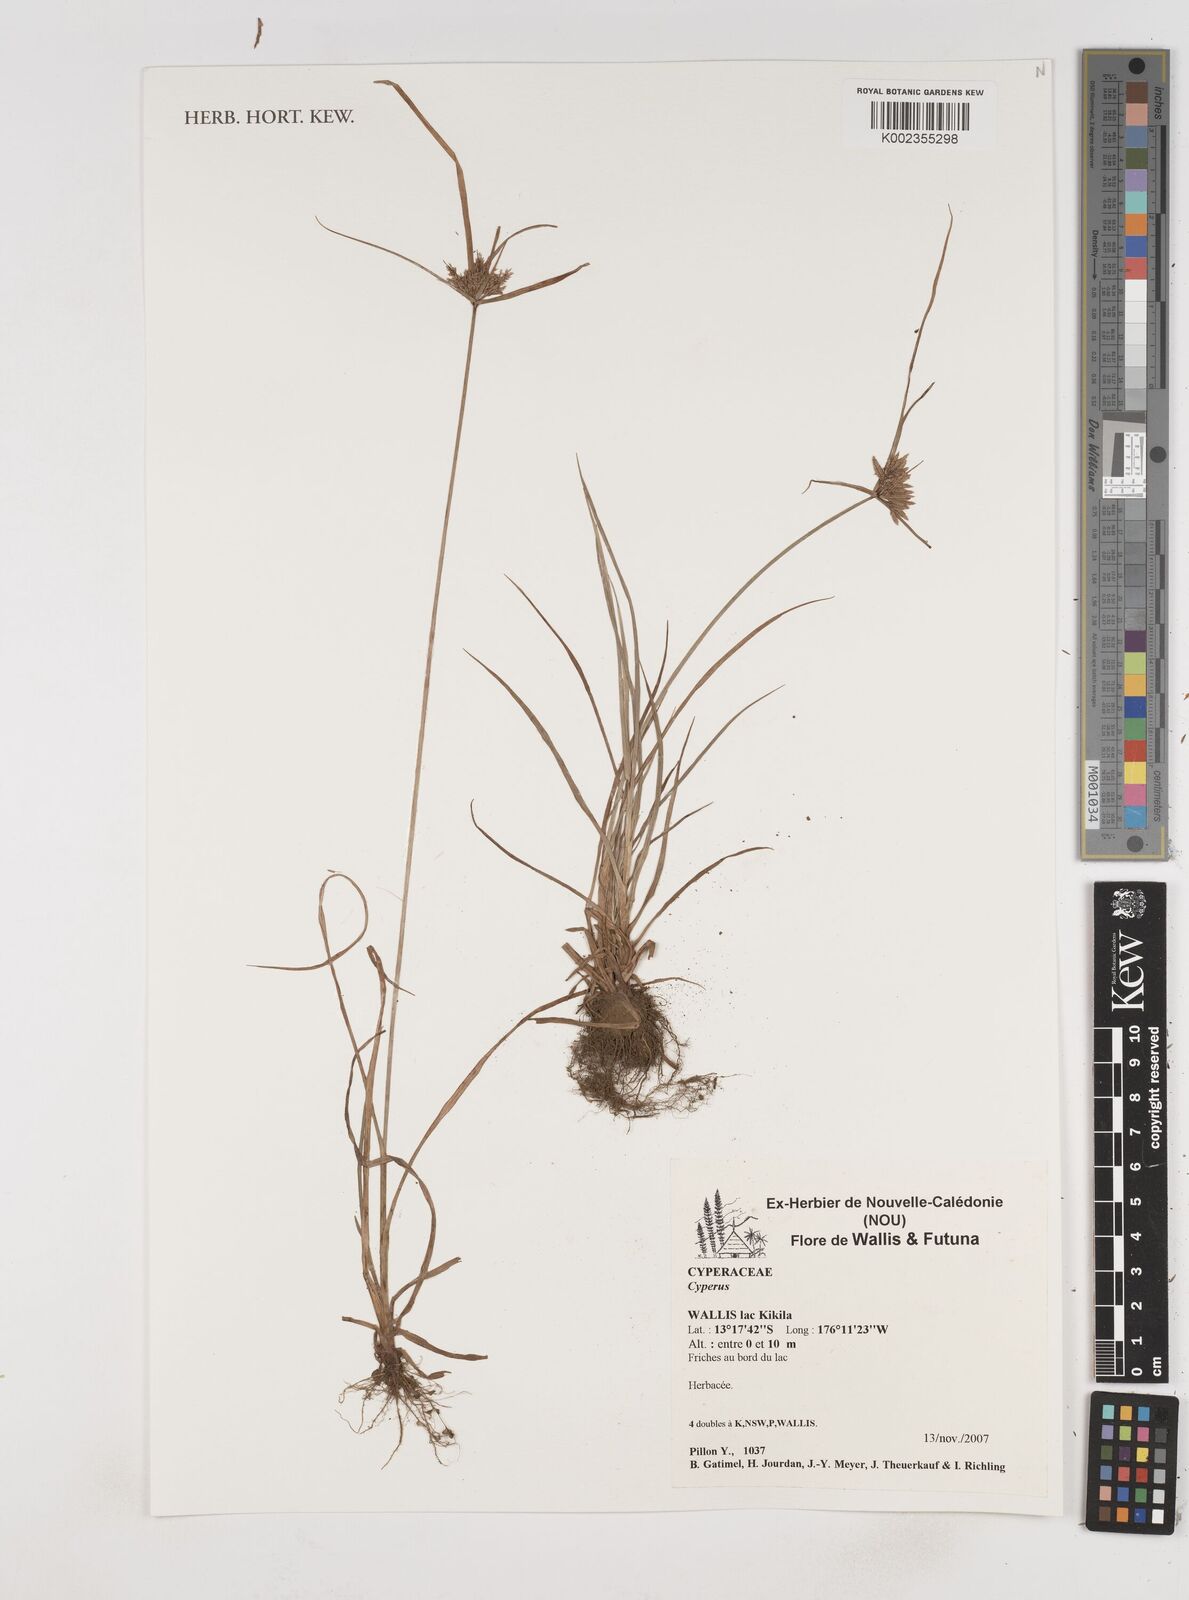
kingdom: Plantae
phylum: Tracheophyta
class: Liliopsida
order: Poales
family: Cyperaceae
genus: Cyperus
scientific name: Cyperus
